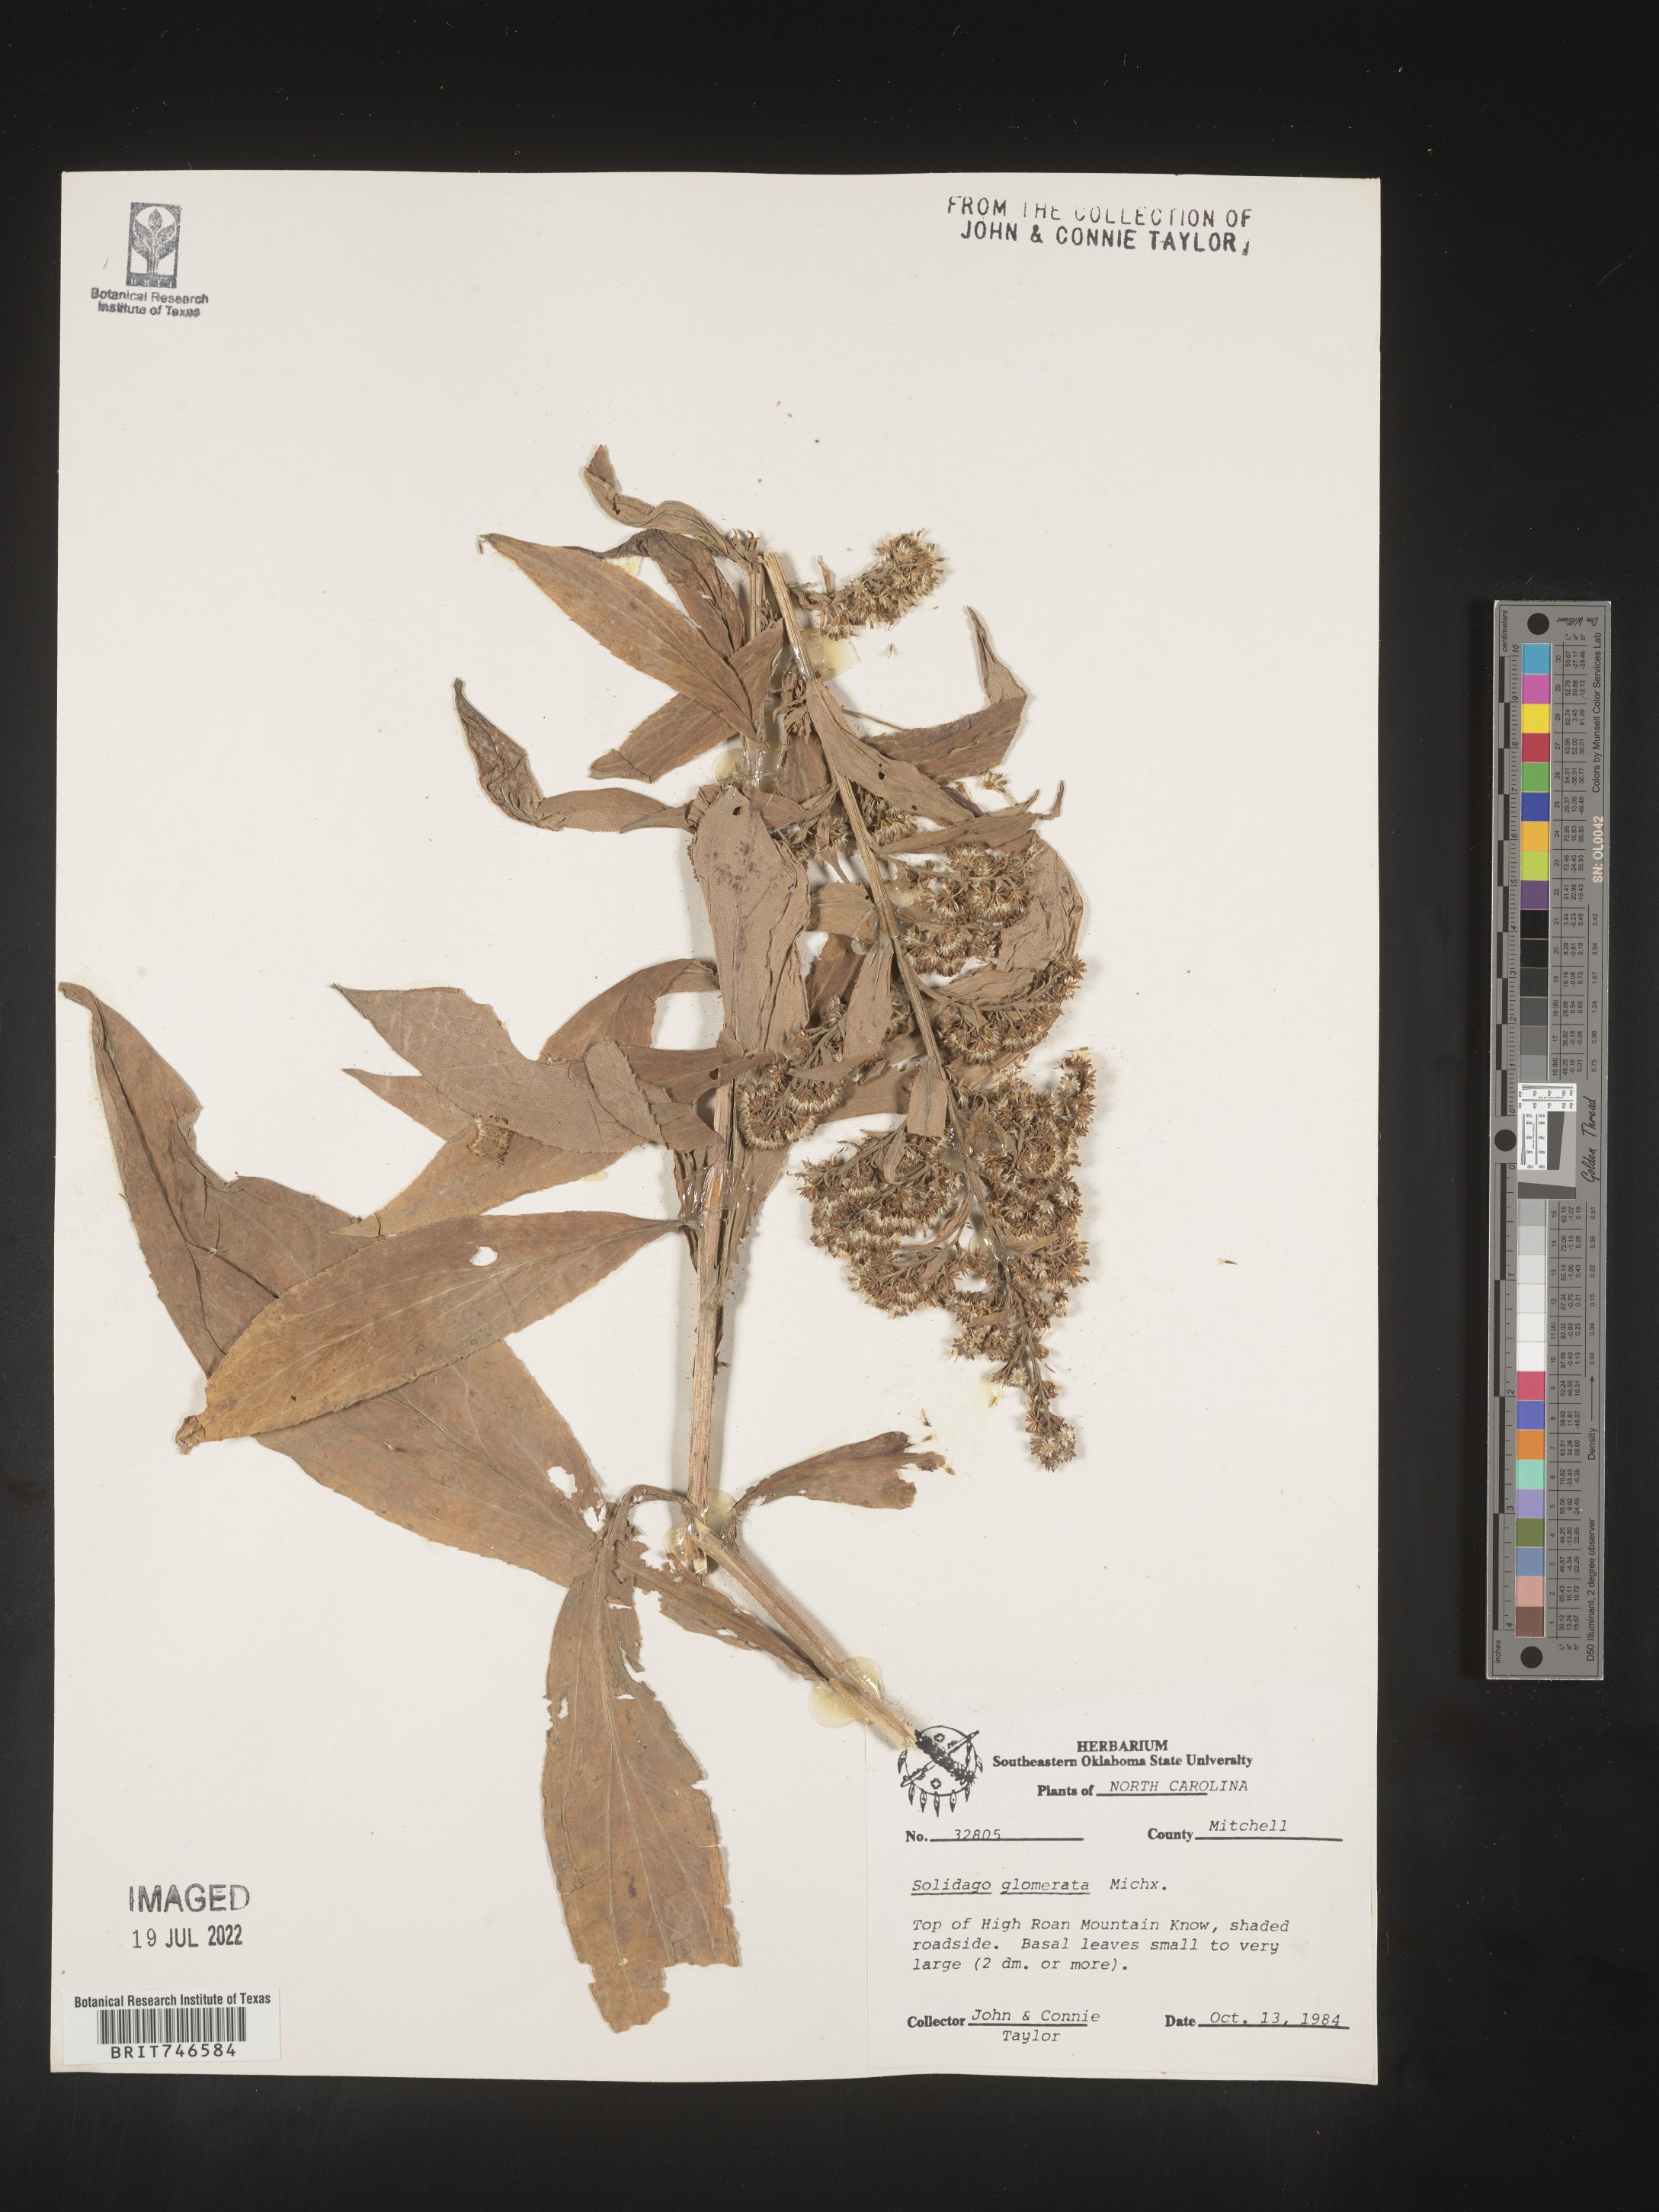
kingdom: Plantae
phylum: Tracheophyta
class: Magnoliopsida
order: Asterales
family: Asteraceae
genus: Solidago
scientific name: Solidago glomerata
